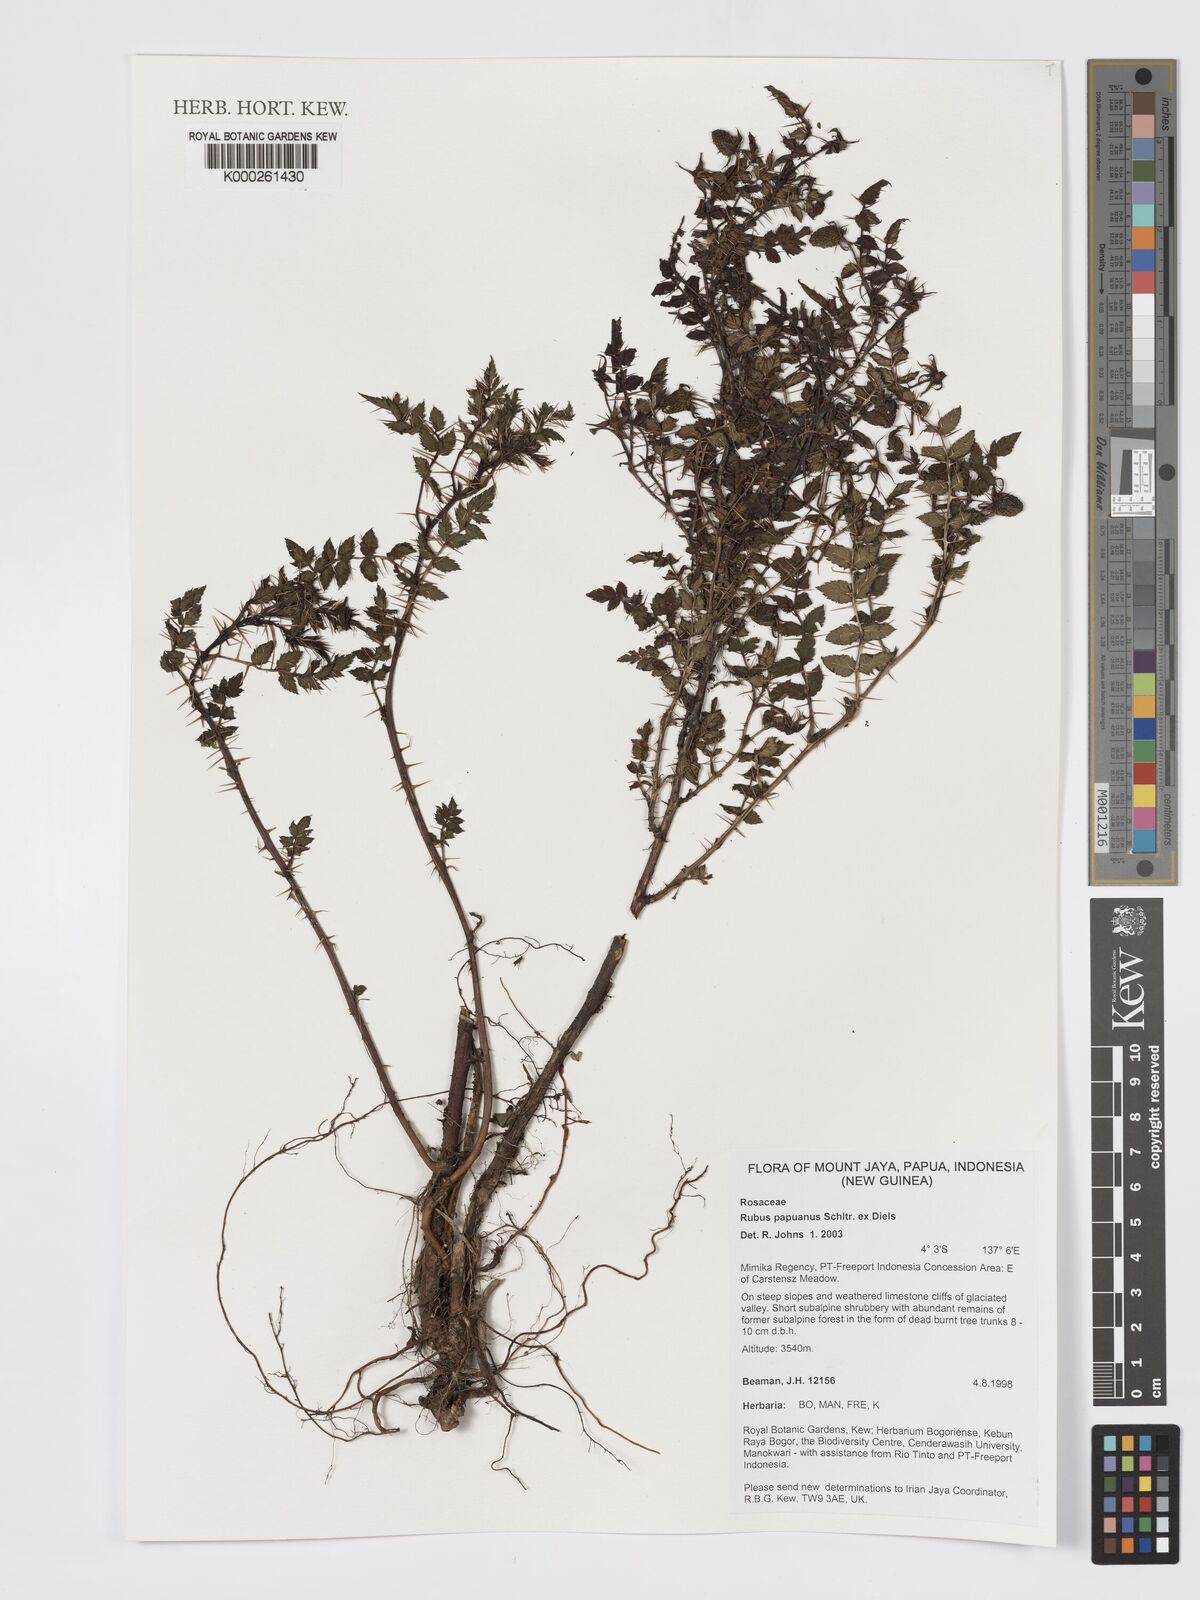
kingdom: Plantae
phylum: Tracheophyta
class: Magnoliopsida
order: Rosales
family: Rosaceae
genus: Rubus
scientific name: Rubus papuanus
